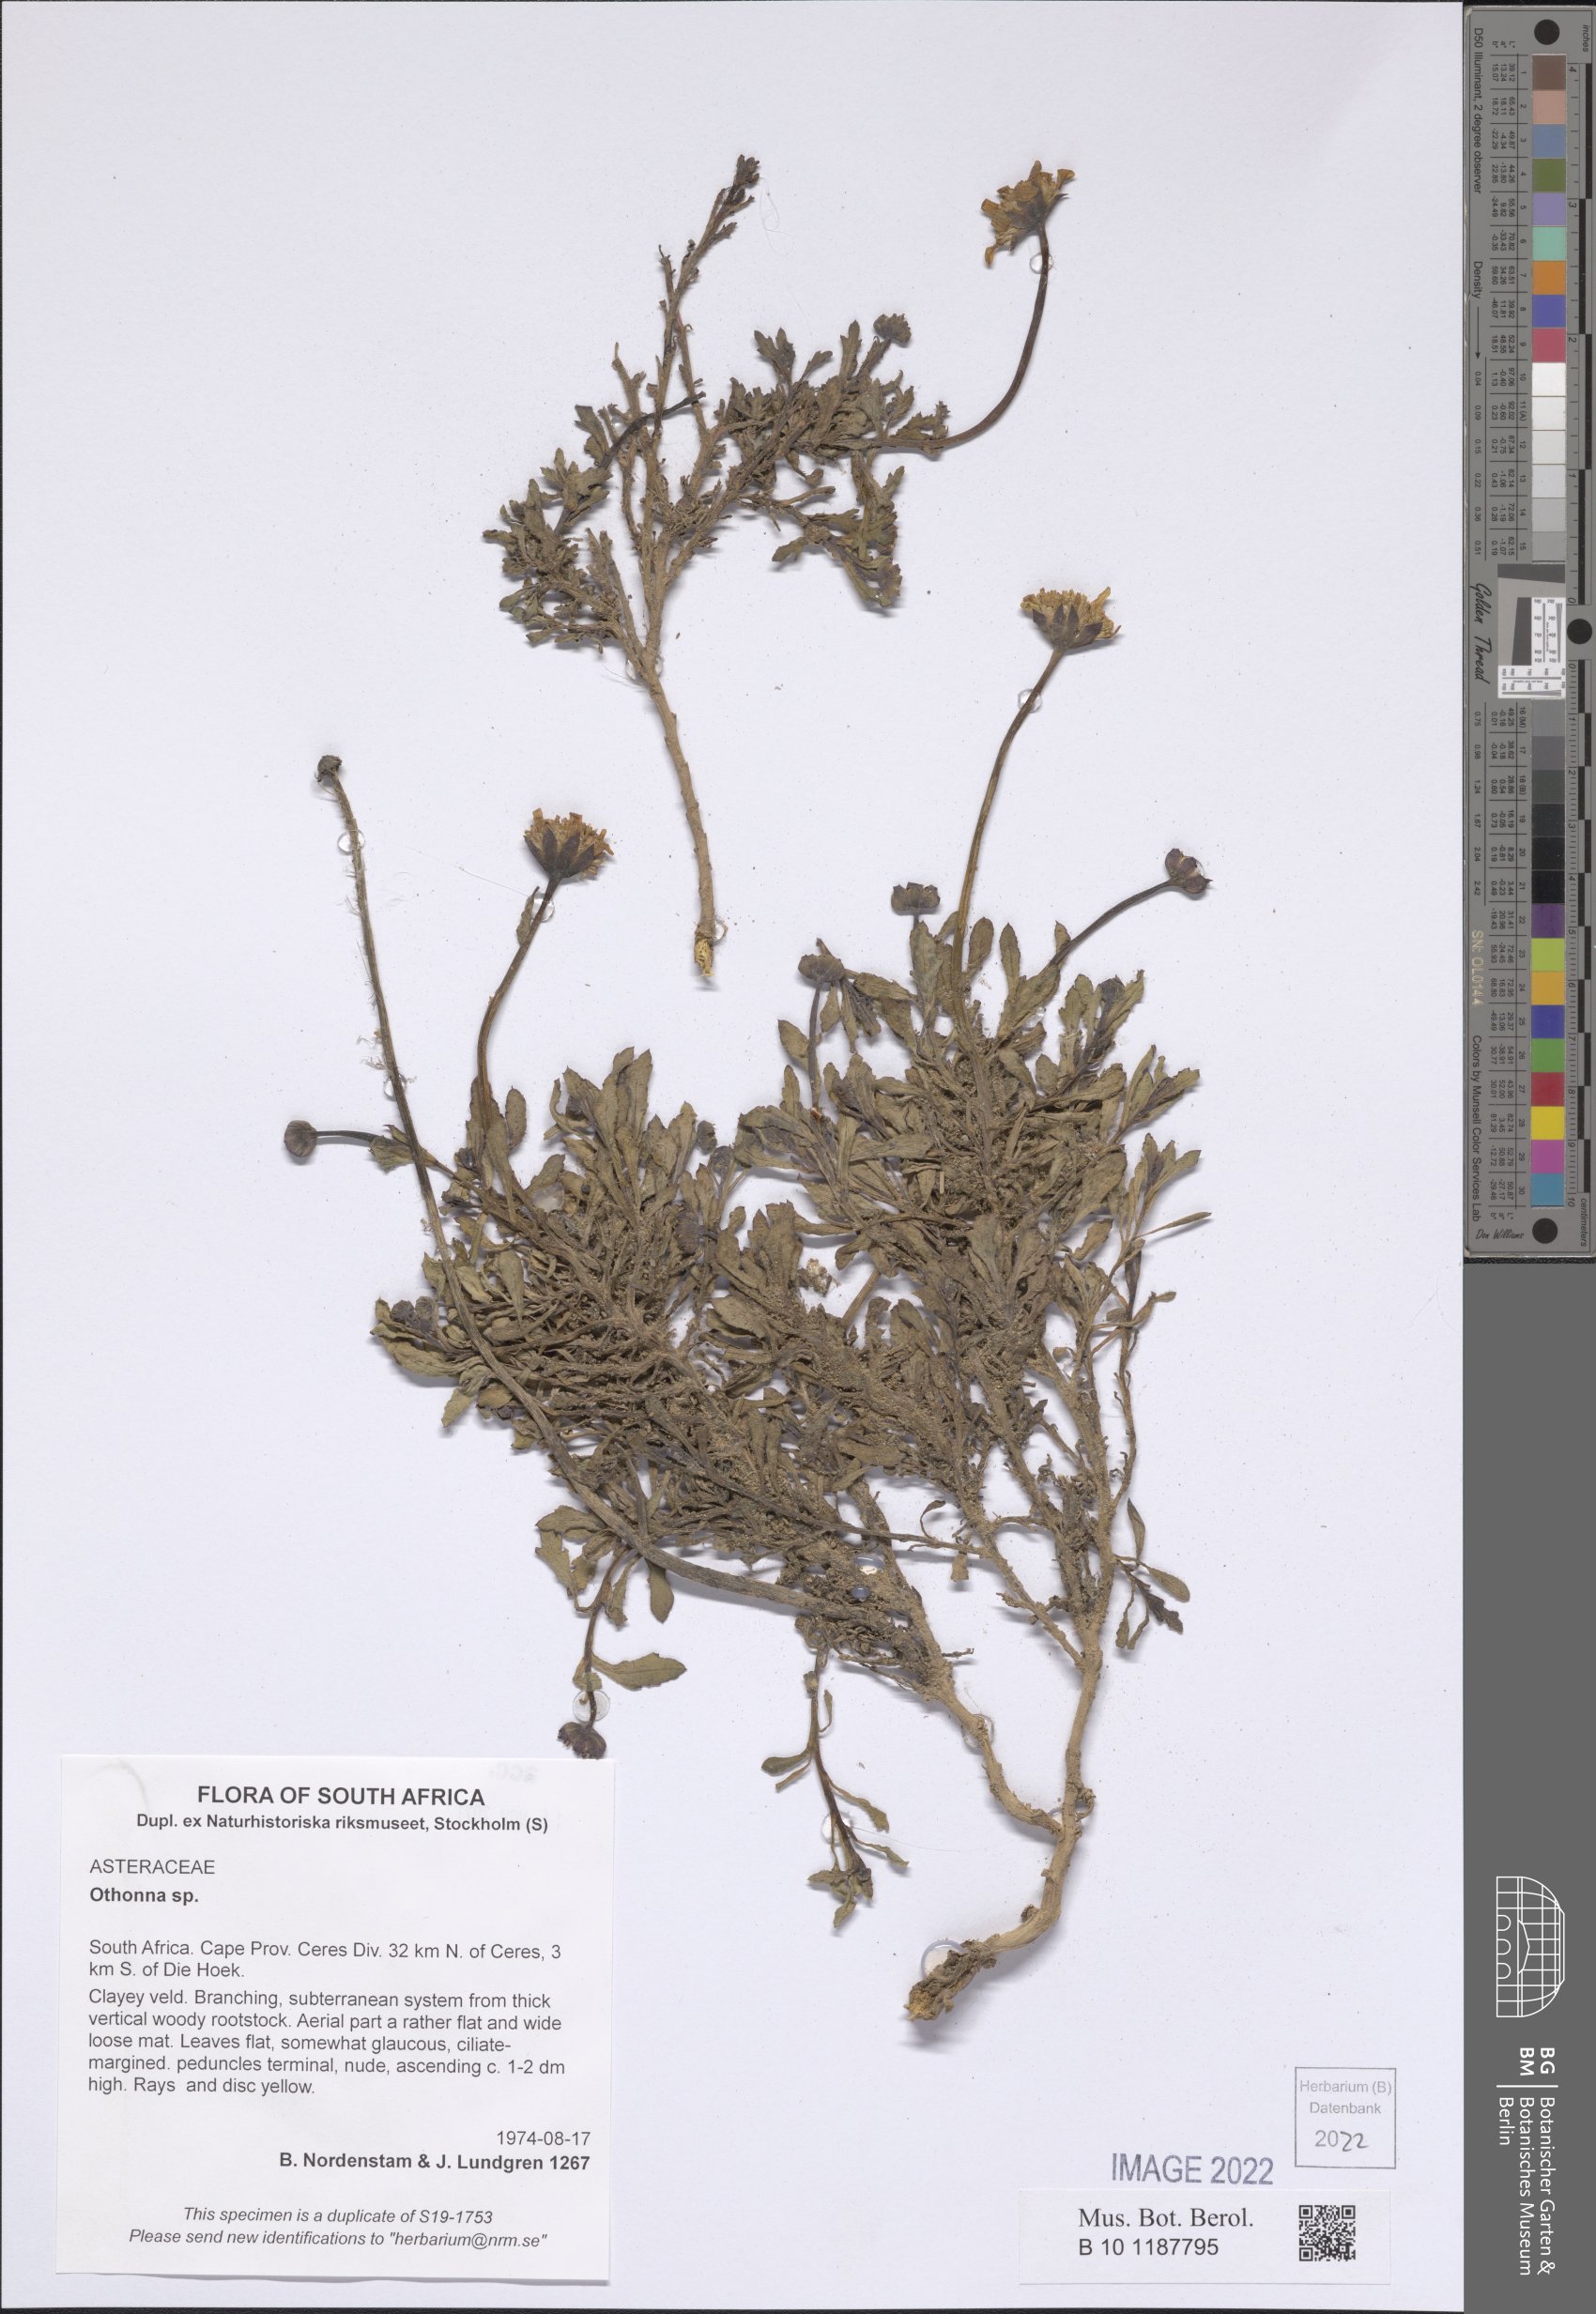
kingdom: Plantae
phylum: Tracheophyta
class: Magnoliopsida
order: Asterales
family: Asteraceae
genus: Othonna
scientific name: Othonna
